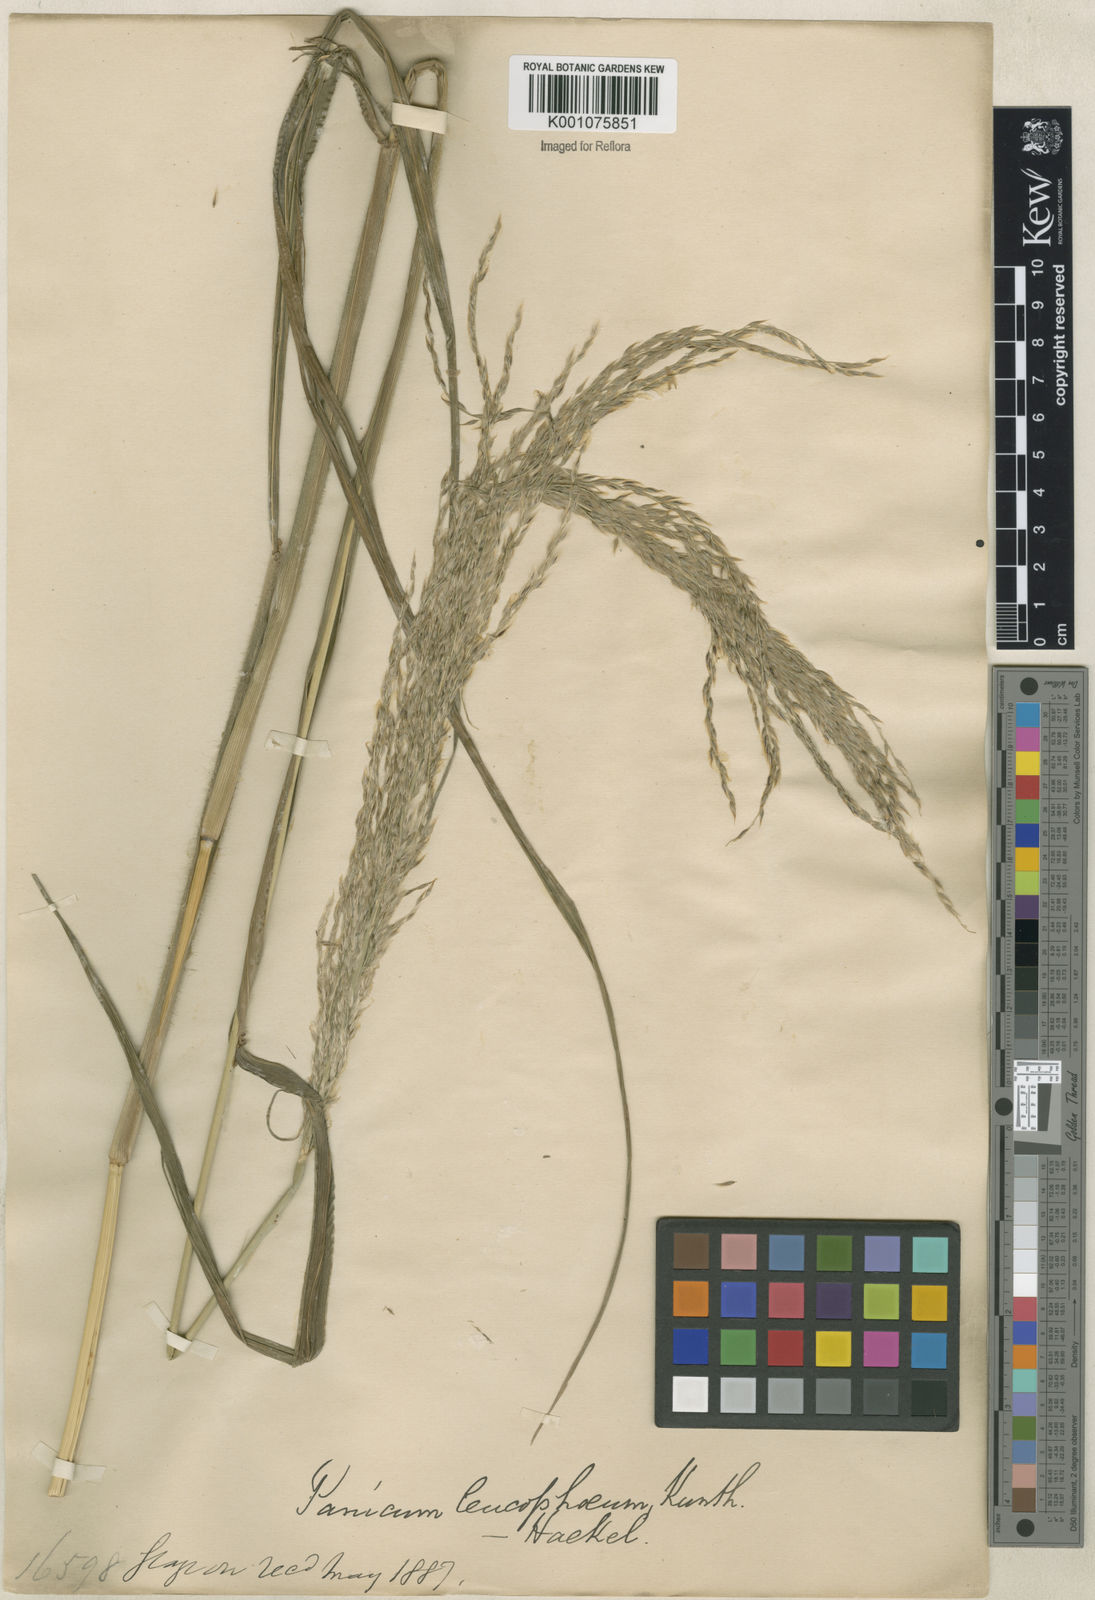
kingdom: Plantae
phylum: Tracheophyta
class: Liliopsida
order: Poales
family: Poaceae
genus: Digitaria
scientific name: Digitaria
